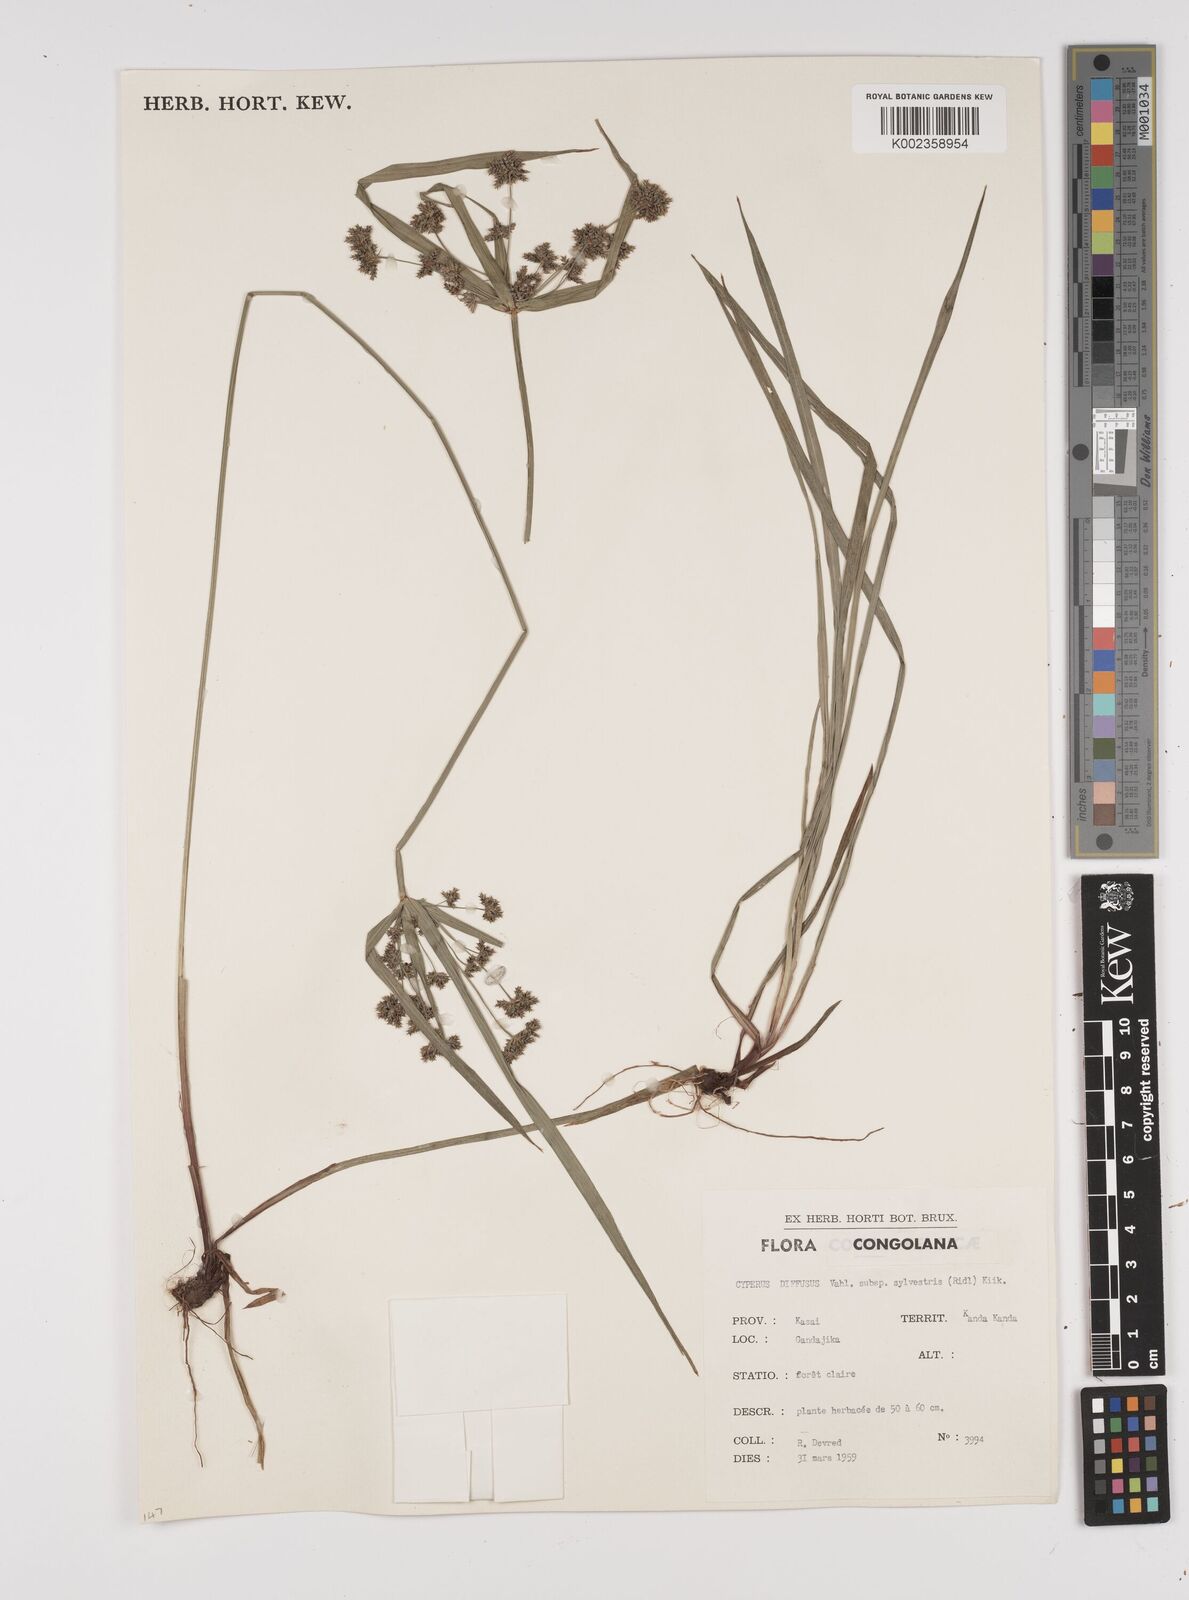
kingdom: Plantae
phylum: Tracheophyta
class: Liliopsida
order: Poales
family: Cyperaceae
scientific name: Cyperaceae
